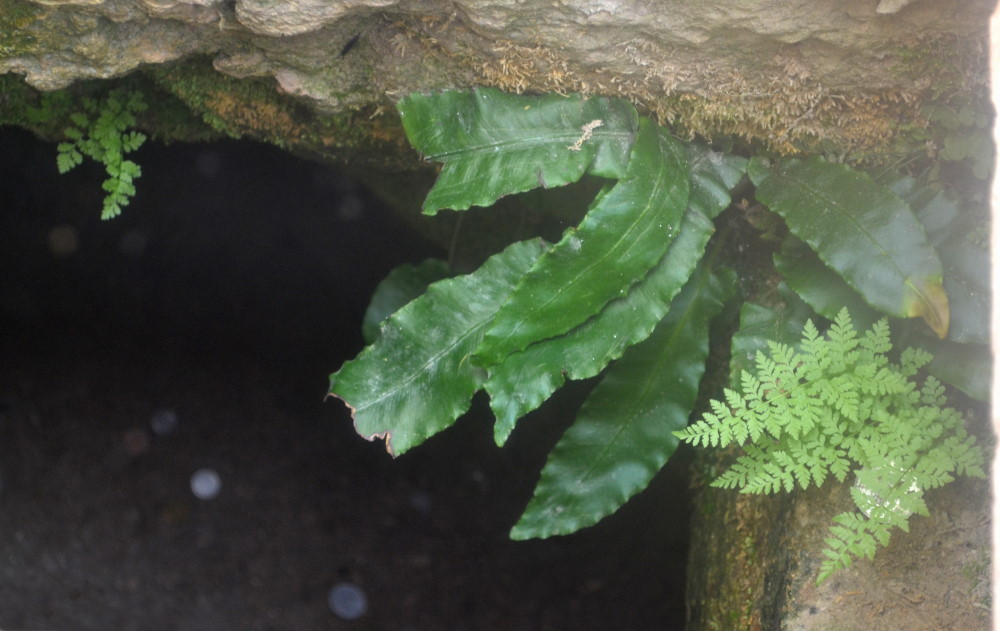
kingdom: Plantae
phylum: Tracheophyta
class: Polypodiopsida
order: Polypodiales
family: Aspleniaceae
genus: Asplenium
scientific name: Asplenium scolopendrium
